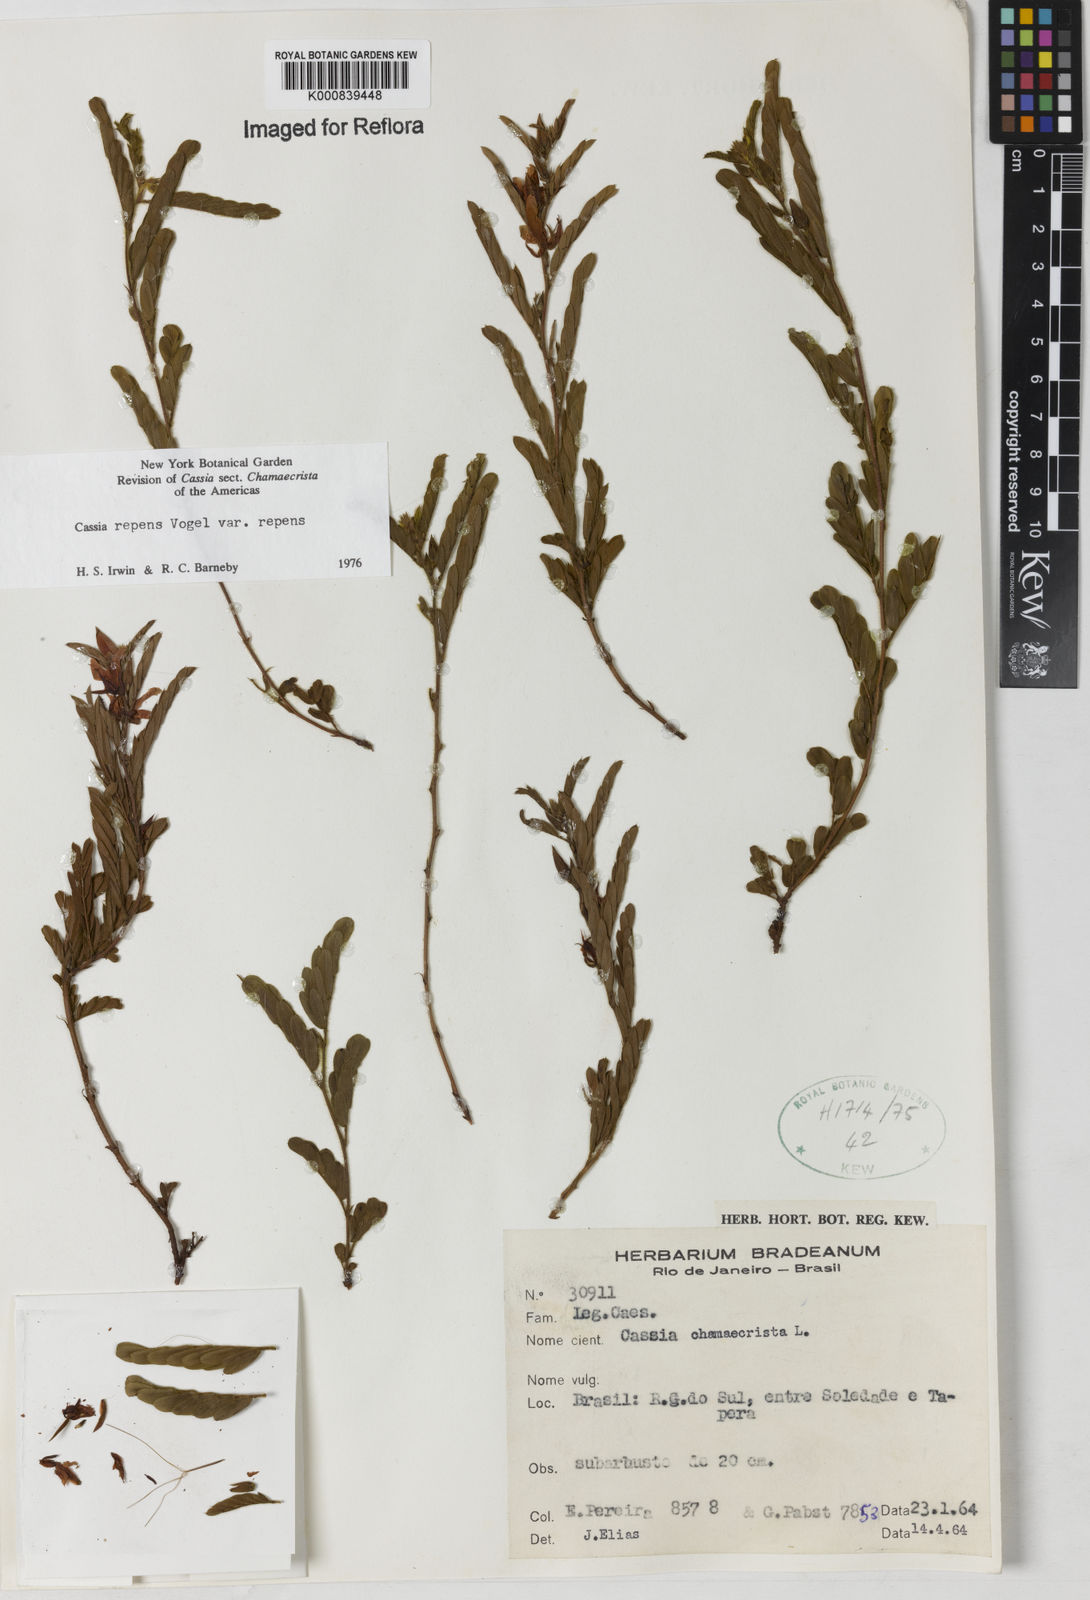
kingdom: Plantae
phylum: Tracheophyta
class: Magnoliopsida
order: Fabales
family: Fabaceae
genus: Chamaecrista
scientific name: Chamaecrista repens
